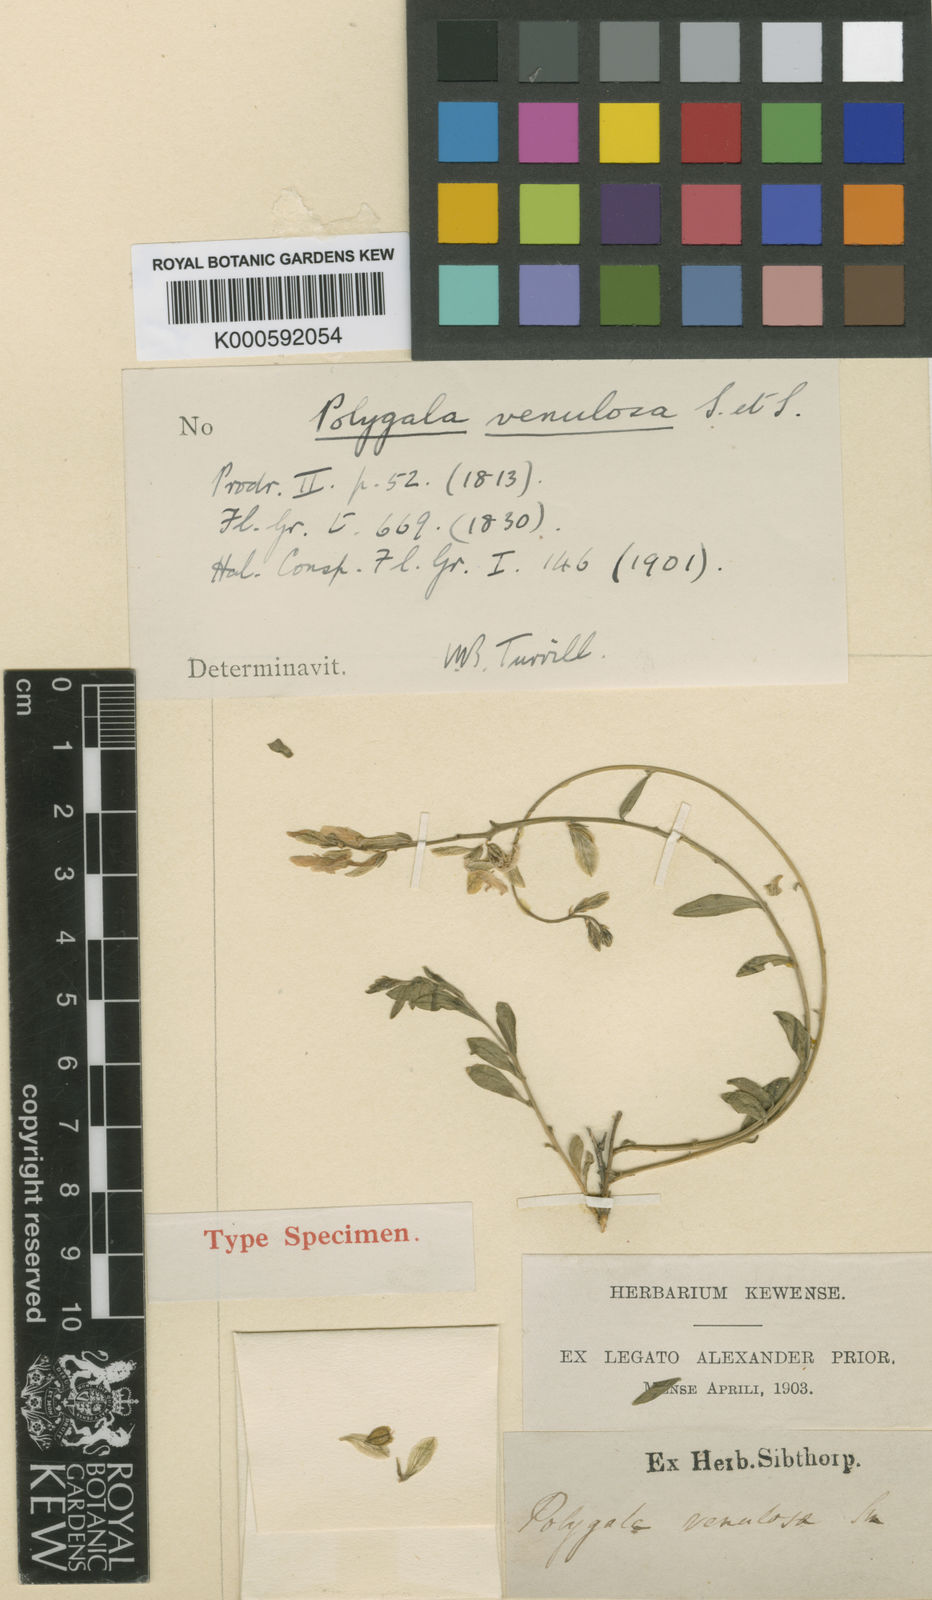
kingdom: Plantae
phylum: Tracheophyta
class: Magnoliopsida
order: Fabales
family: Polygalaceae
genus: Polygala
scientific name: Polygala venulosa
